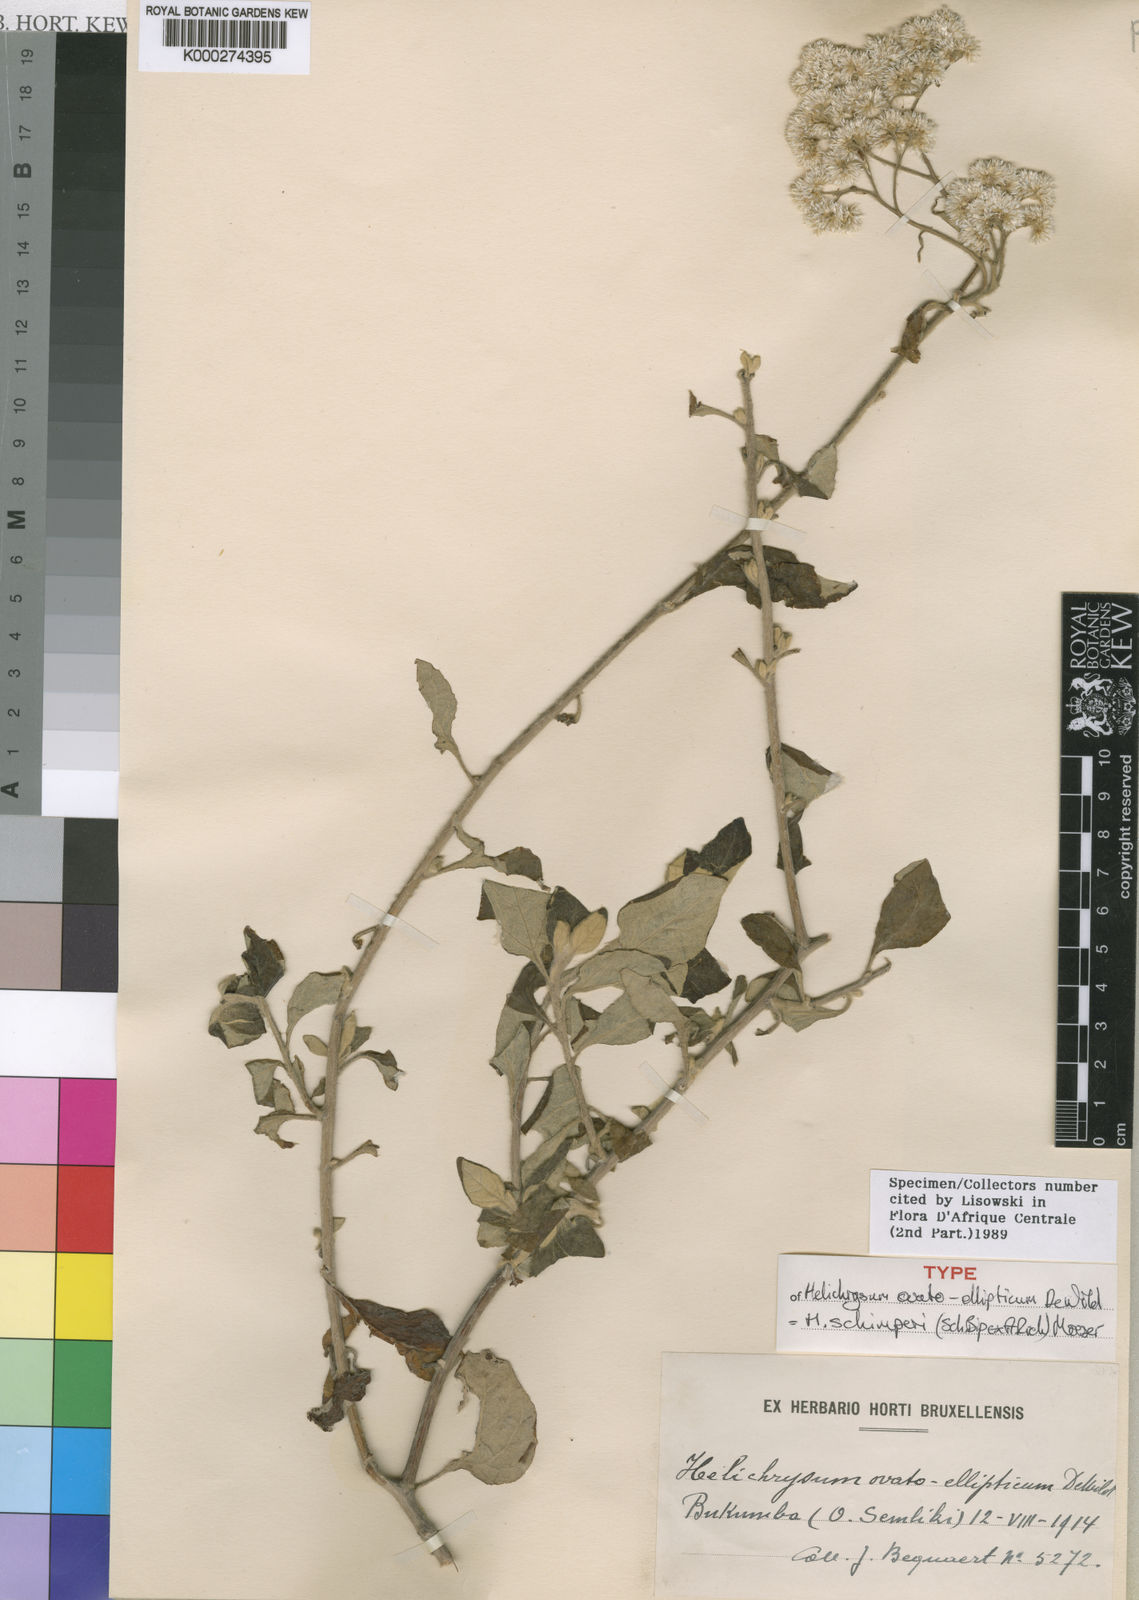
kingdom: Plantae
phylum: Tracheophyta
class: Magnoliopsida
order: Asterales
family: Asteraceae
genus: Helichrysum
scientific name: Helichrysum schimperi
